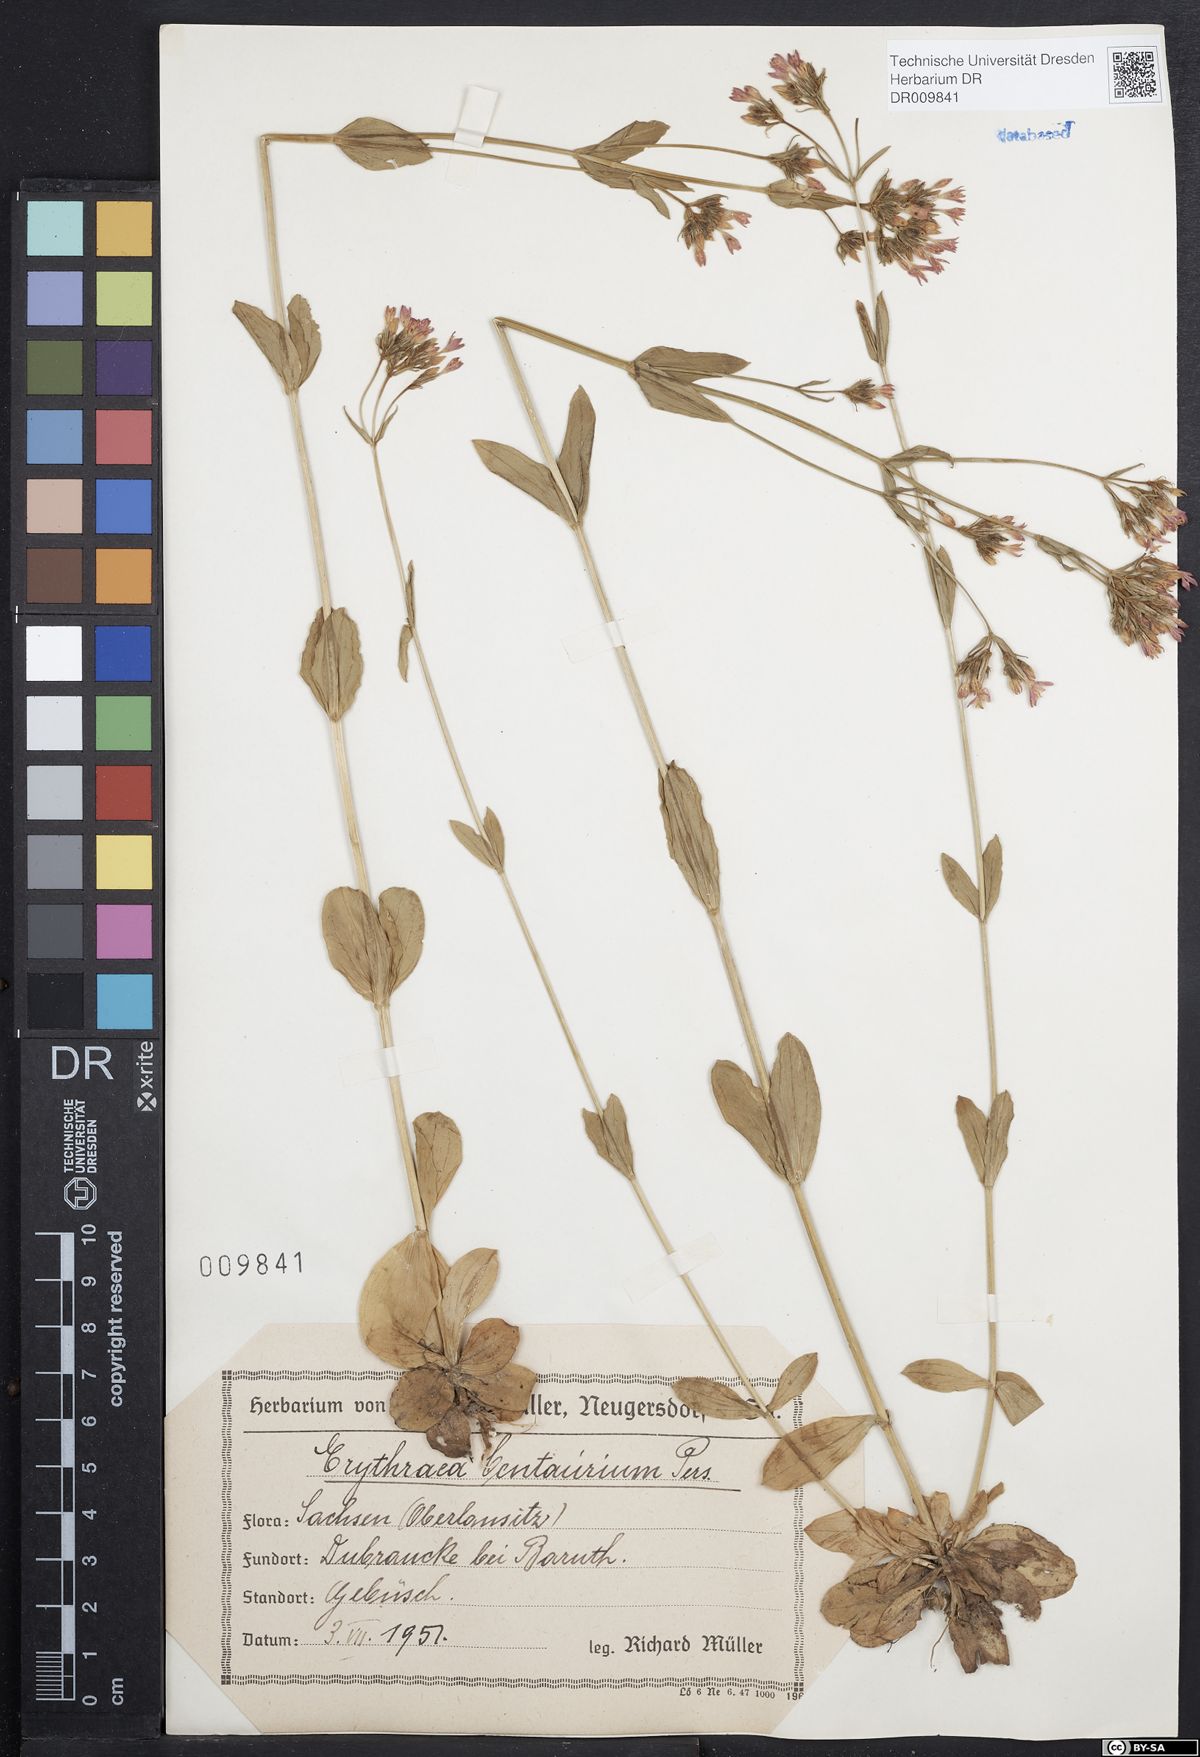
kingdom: Plantae
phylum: Tracheophyta
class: Magnoliopsida
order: Gentianales
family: Gentianaceae
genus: Centaurium
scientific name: Centaurium erythraea
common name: Common centaury
